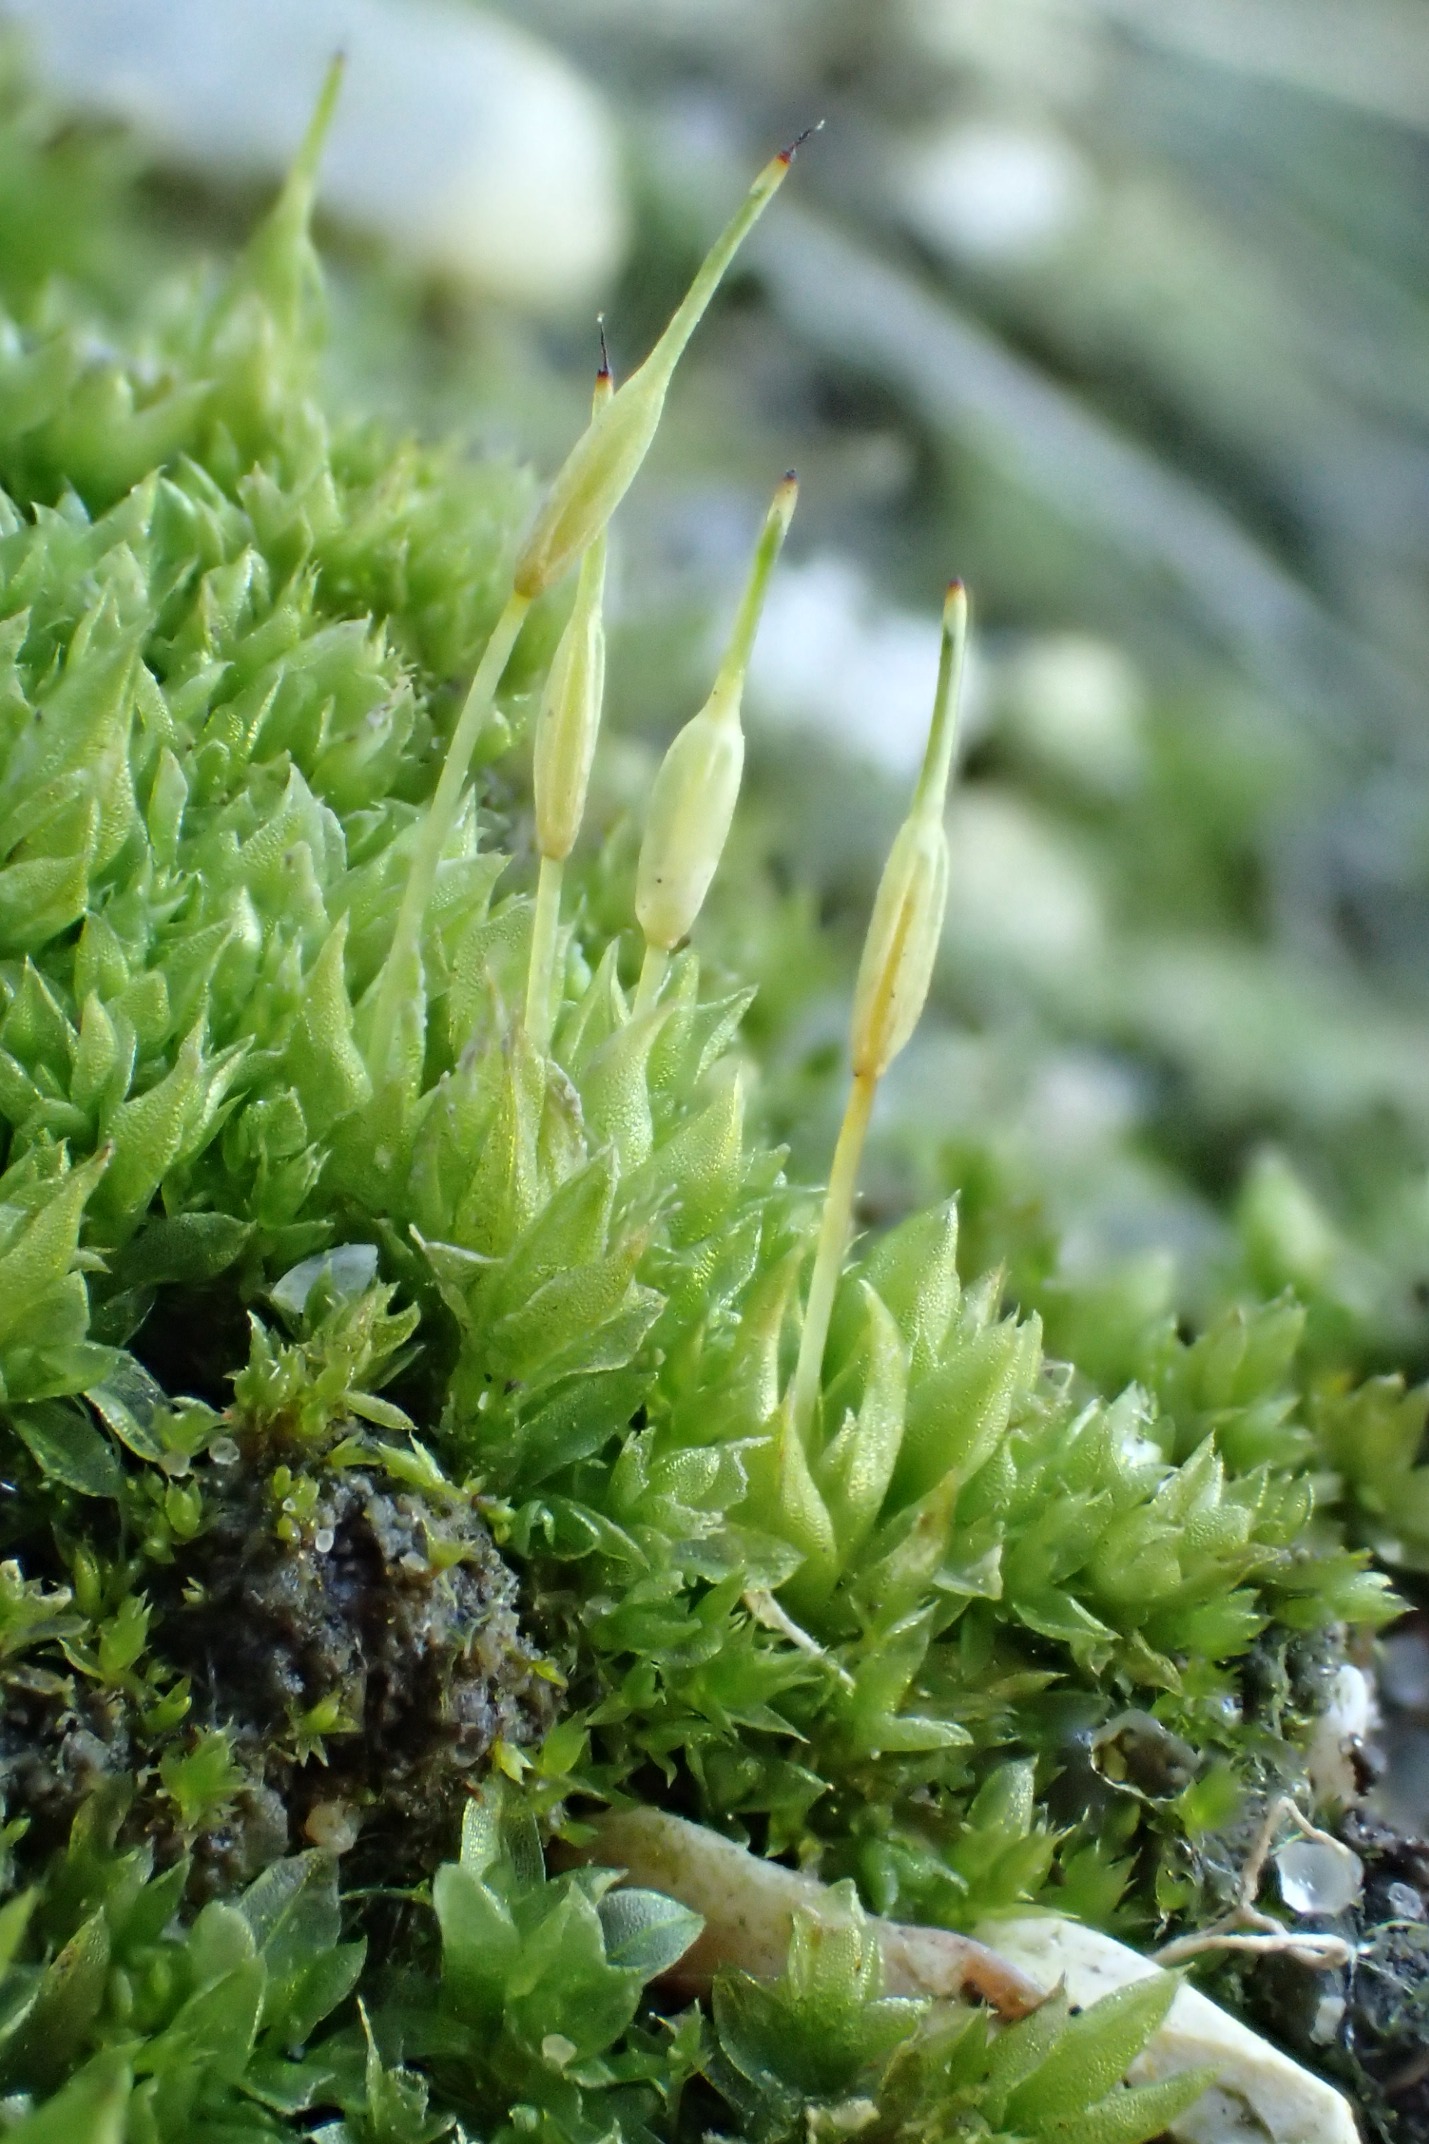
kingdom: Plantae
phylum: Bryophyta
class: Bryopsida
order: Funariales
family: Funariaceae
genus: Funaria
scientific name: Funaria hygrometrica
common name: Almindelig snobørste
